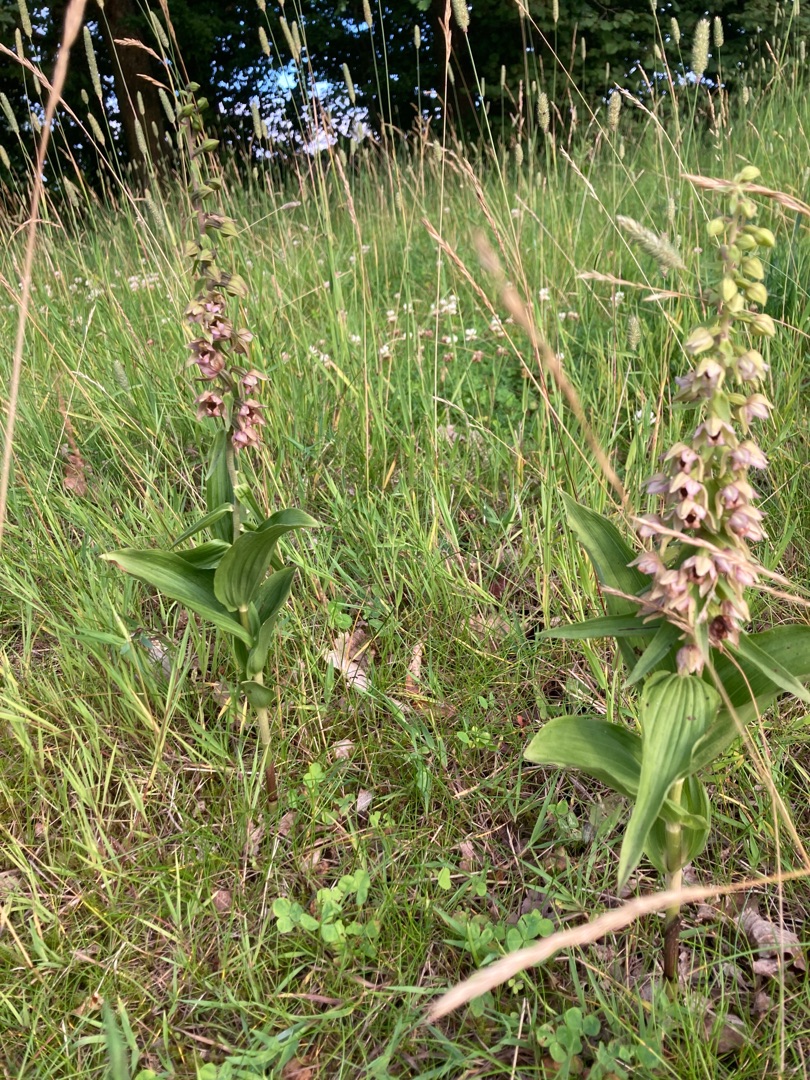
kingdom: Plantae
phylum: Tracheophyta
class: Liliopsida
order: Asparagales
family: Orchidaceae
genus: Epipactis
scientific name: Epipactis helleborine
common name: Skov-hullæbe
